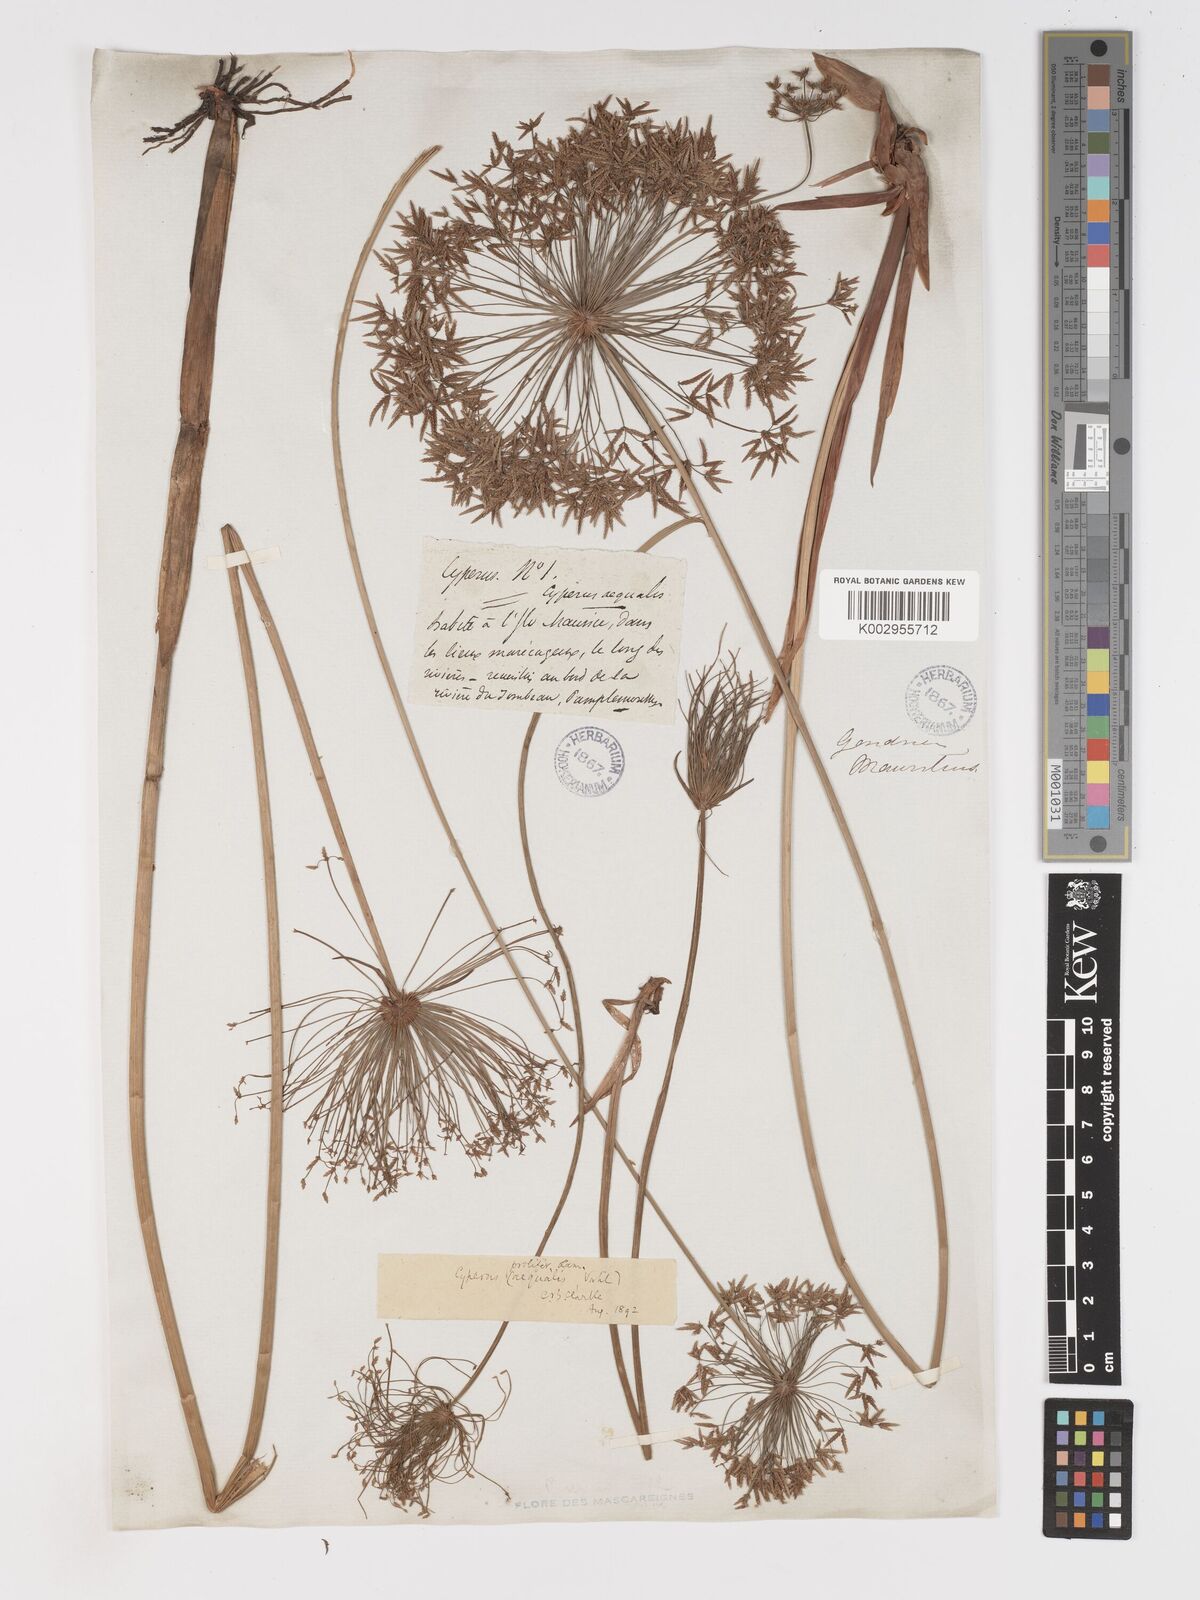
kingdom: Plantae
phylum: Tracheophyta
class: Liliopsida
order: Poales
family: Cyperaceae
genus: Cyperus
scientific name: Cyperus prolifer
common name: Miniature flatsedge
